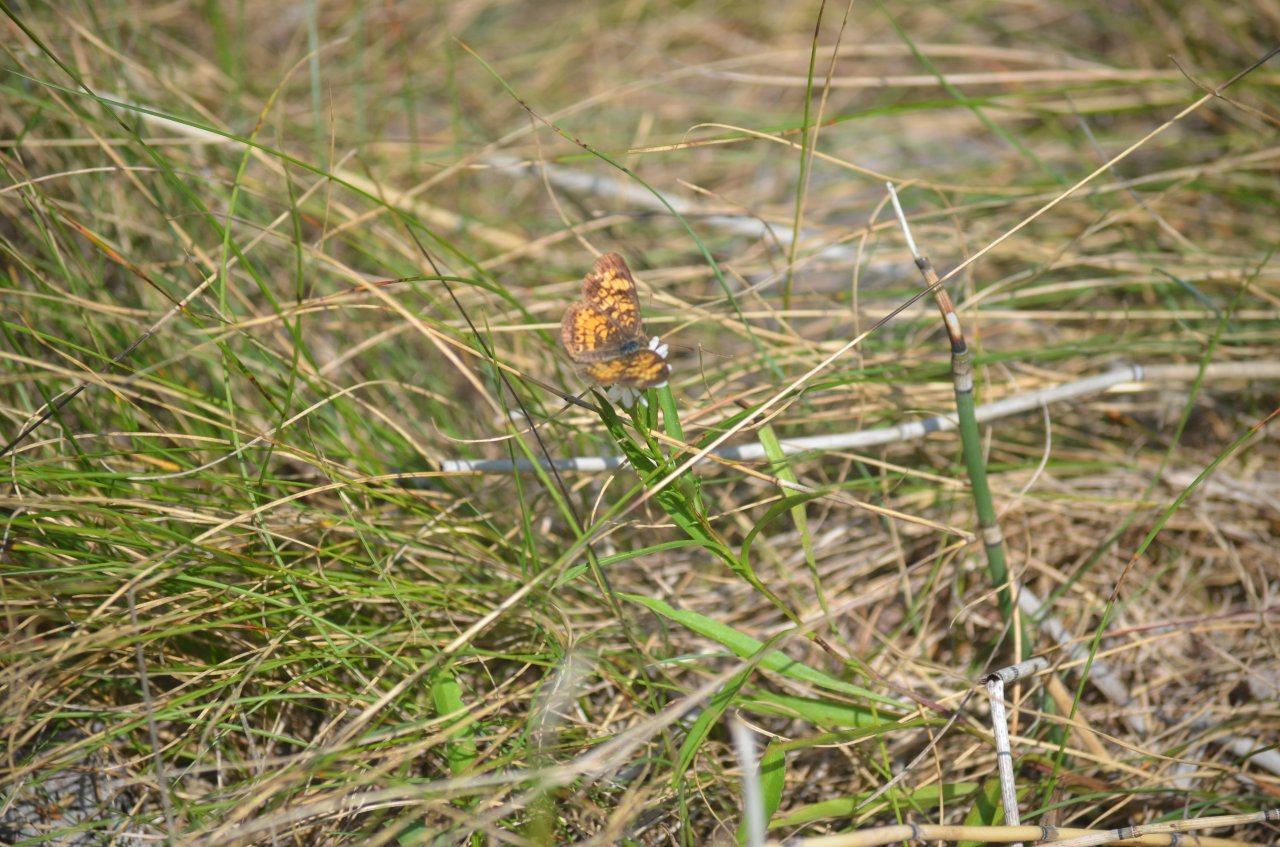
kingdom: Animalia
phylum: Arthropoda
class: Insecta
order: Lepidoptera
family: Nymphalidae
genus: Phyciodes
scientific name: Phyciodes tharos
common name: Northern Crescent
